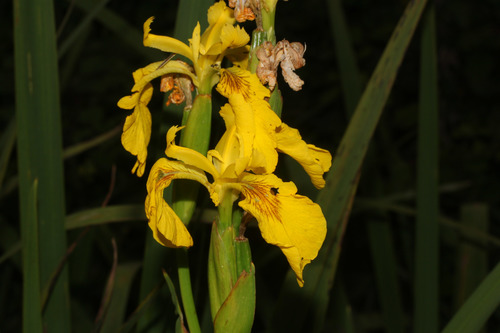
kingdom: Plantae
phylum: Tracheophyta
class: Liliopsida
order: Asparagales
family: Iridaceae
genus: Iris
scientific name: Iris pseudacorus
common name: Yellow flag
